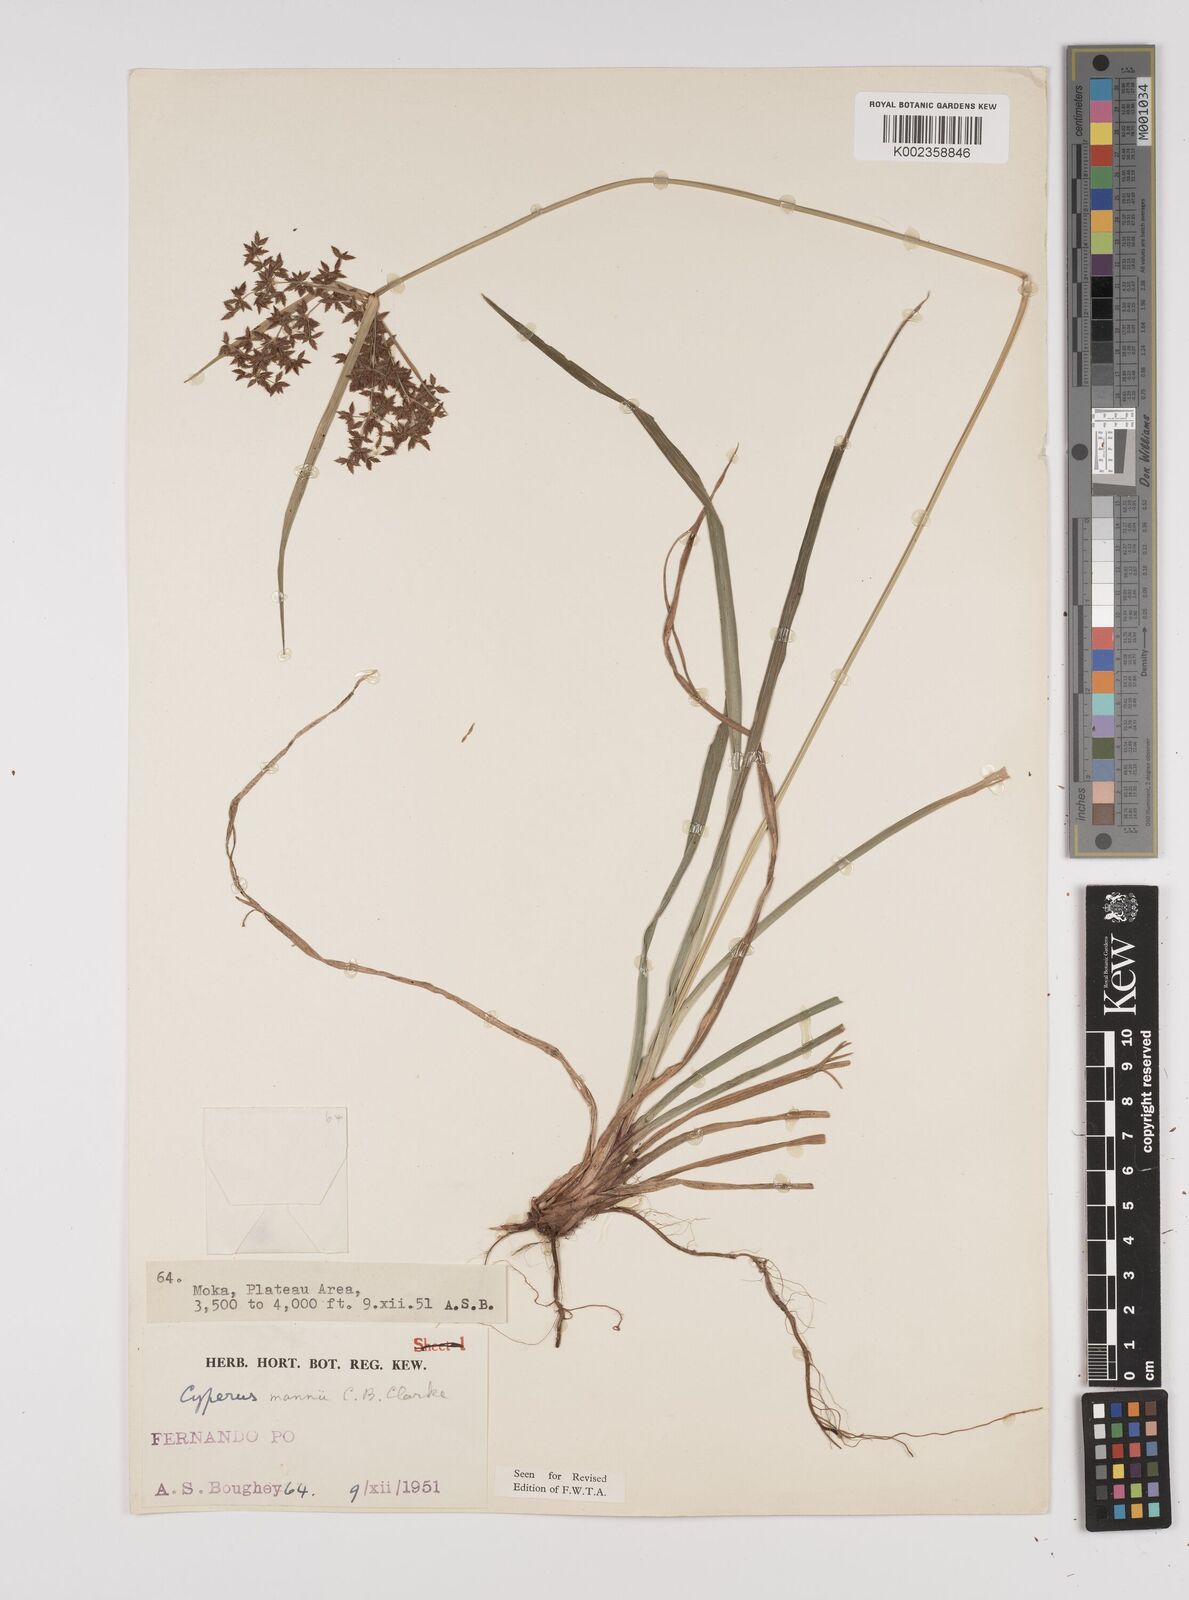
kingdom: Plantae
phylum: Tracheophyta
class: Liliopsida
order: Poales
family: Cyperaceae
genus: Cyperus
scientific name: Cyperus baronii
